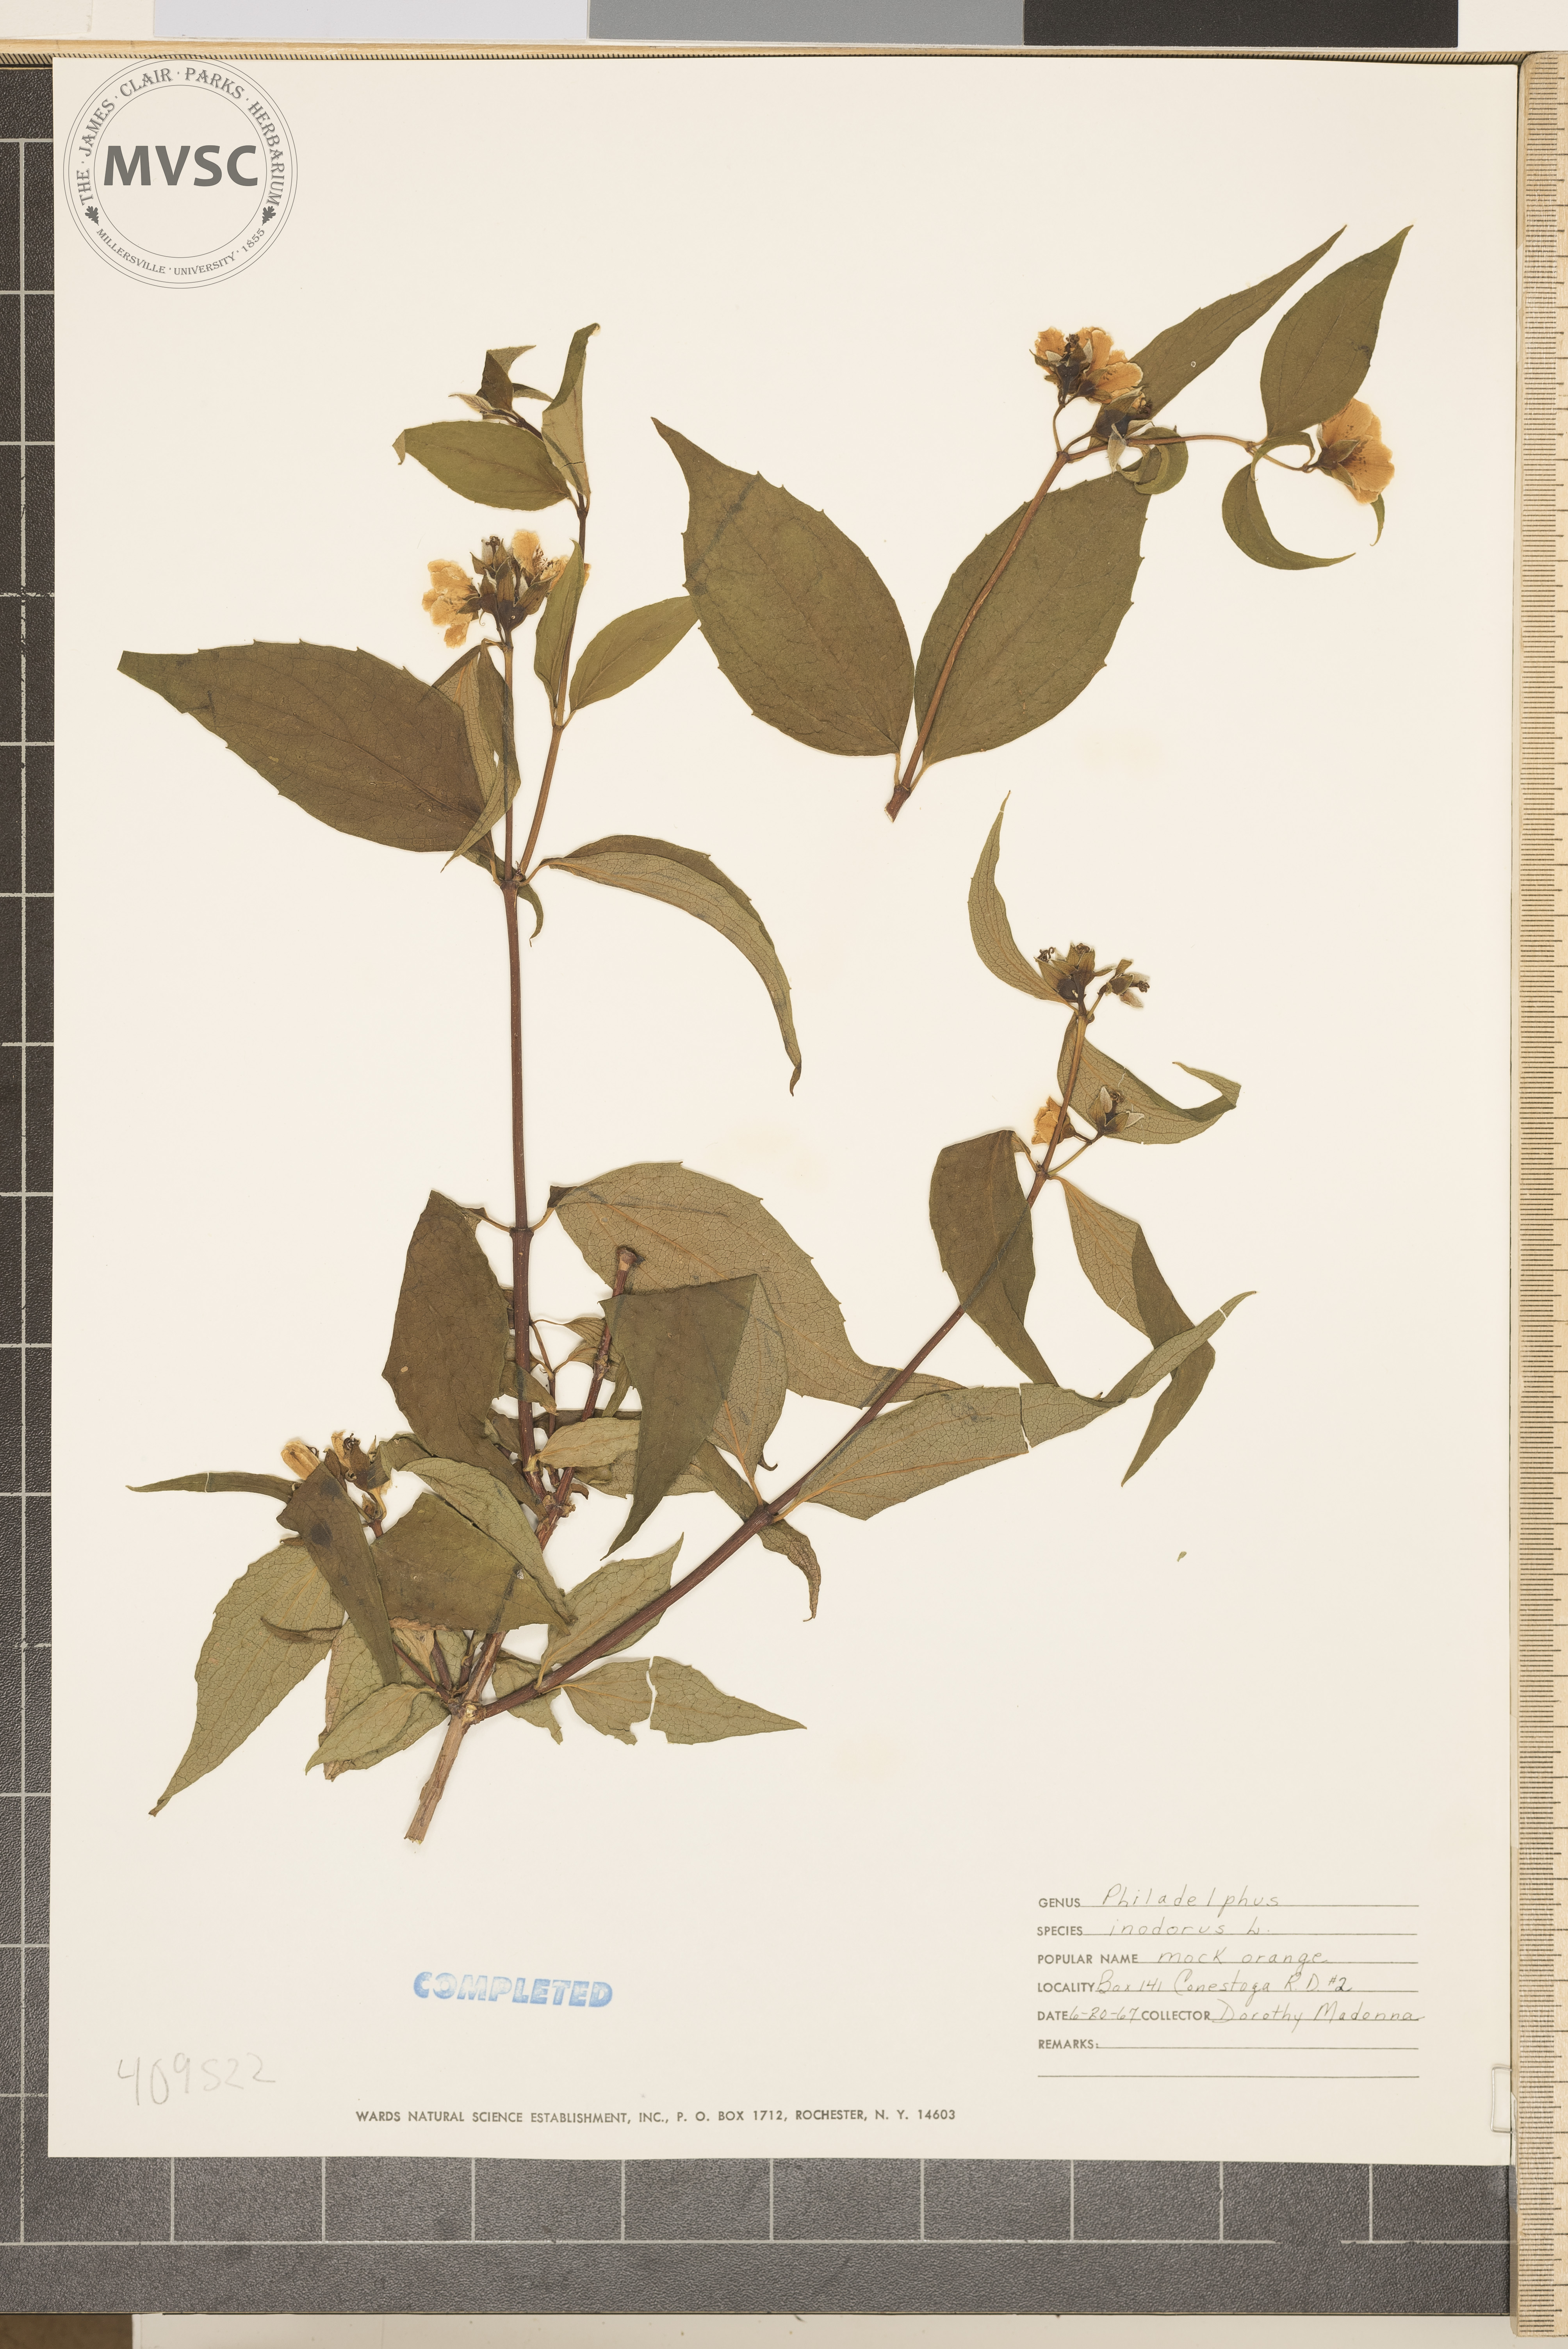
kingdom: Plantae
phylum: Tracheophyta
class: Magnoliopsida
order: Cornales
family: Hydrangeaceae
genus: Philadelphus
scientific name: Philadelphus inodorus
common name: Scentless mock-orange
